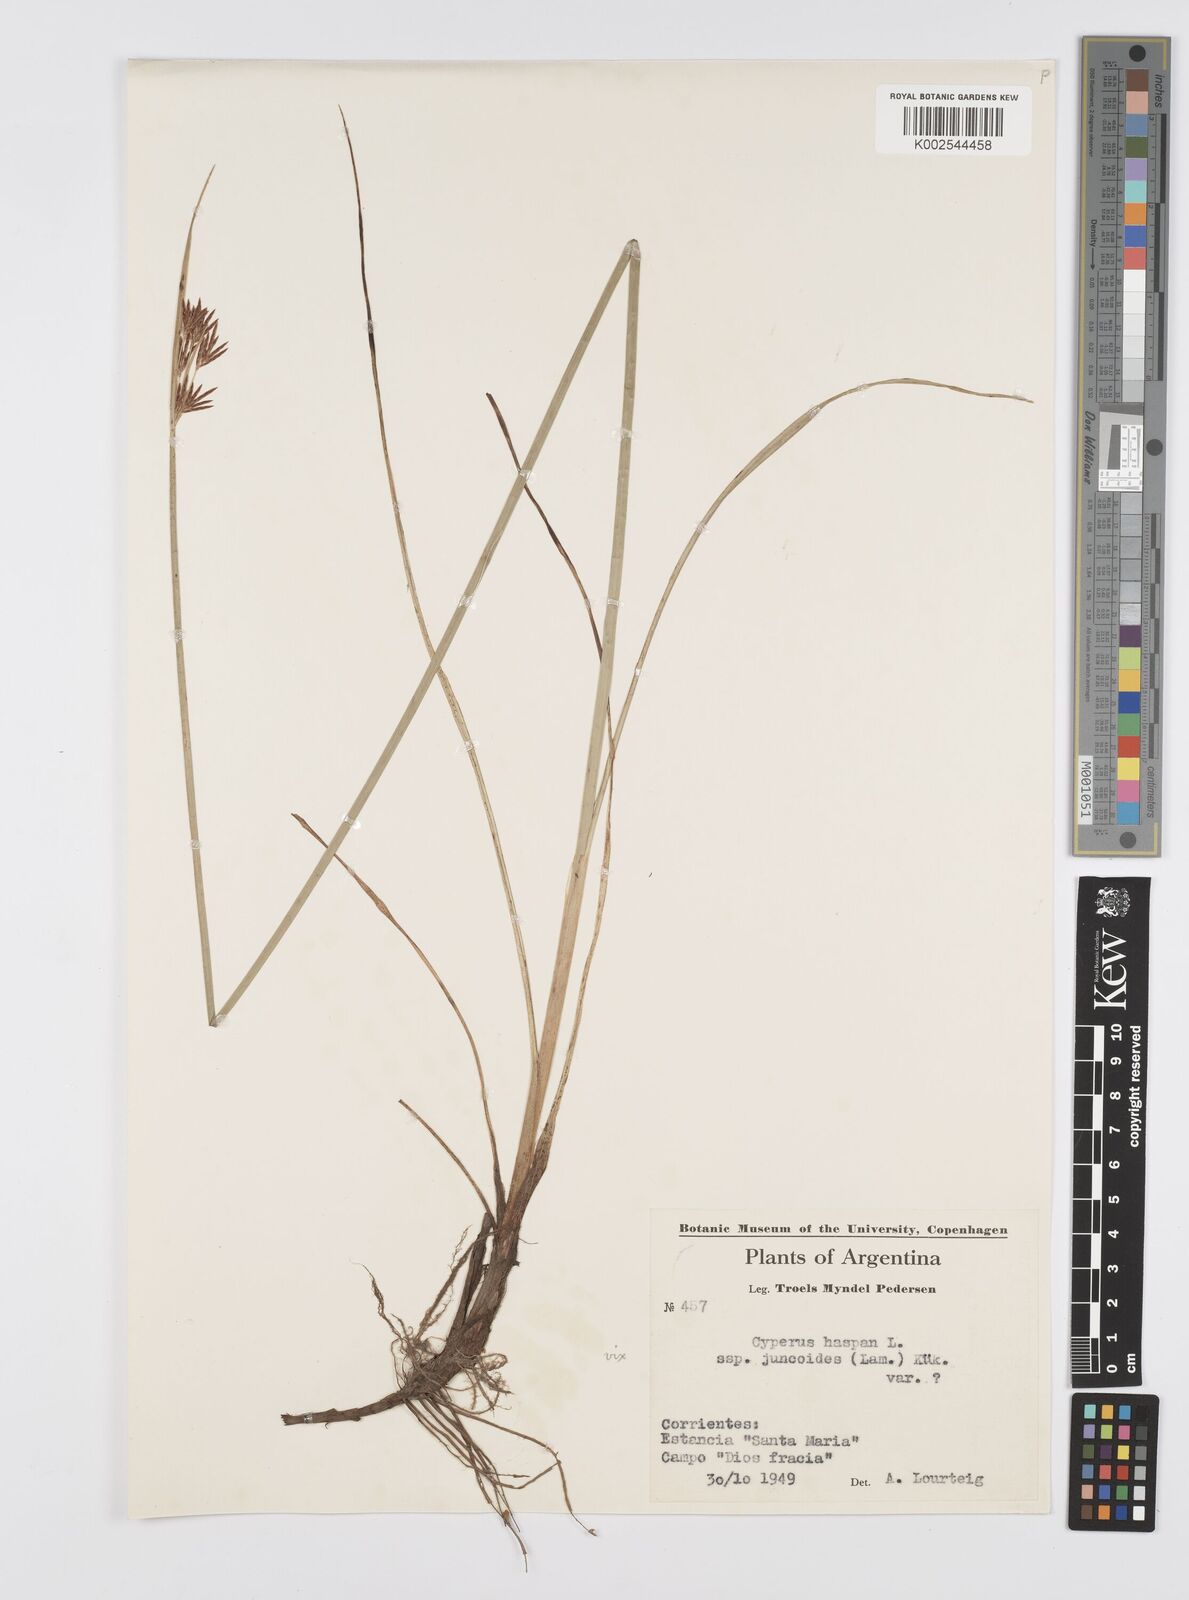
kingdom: Plantae
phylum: Tracheophyta
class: Liliopsida
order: Poales
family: Cyperaceae
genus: Cyperus
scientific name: Cyperus
